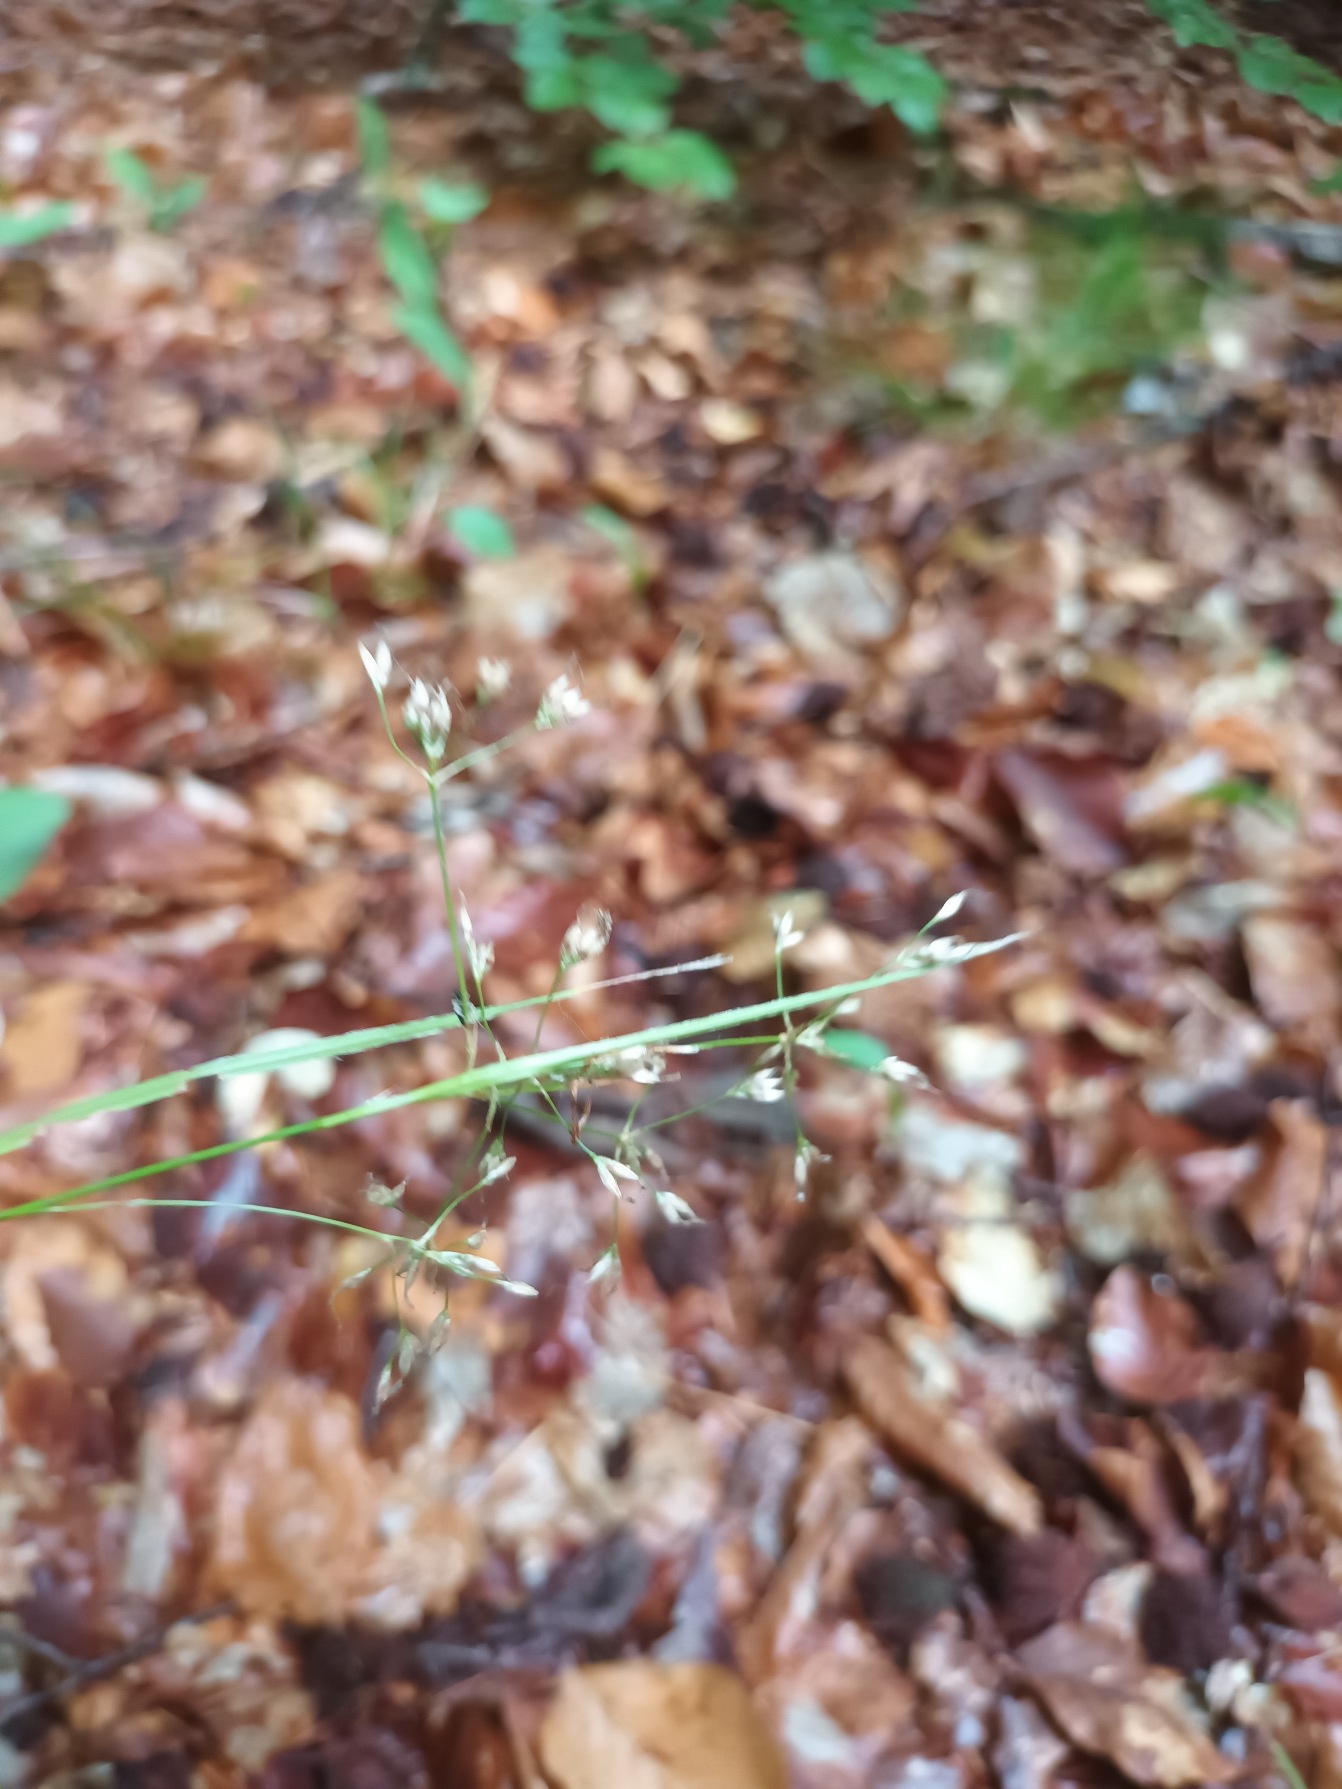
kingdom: Plantae
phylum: Tracheophyta
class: Liliopsida
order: Poales
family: Juncaceae
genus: Luzula
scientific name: Luzula luzuloides
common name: Bleg frytle
